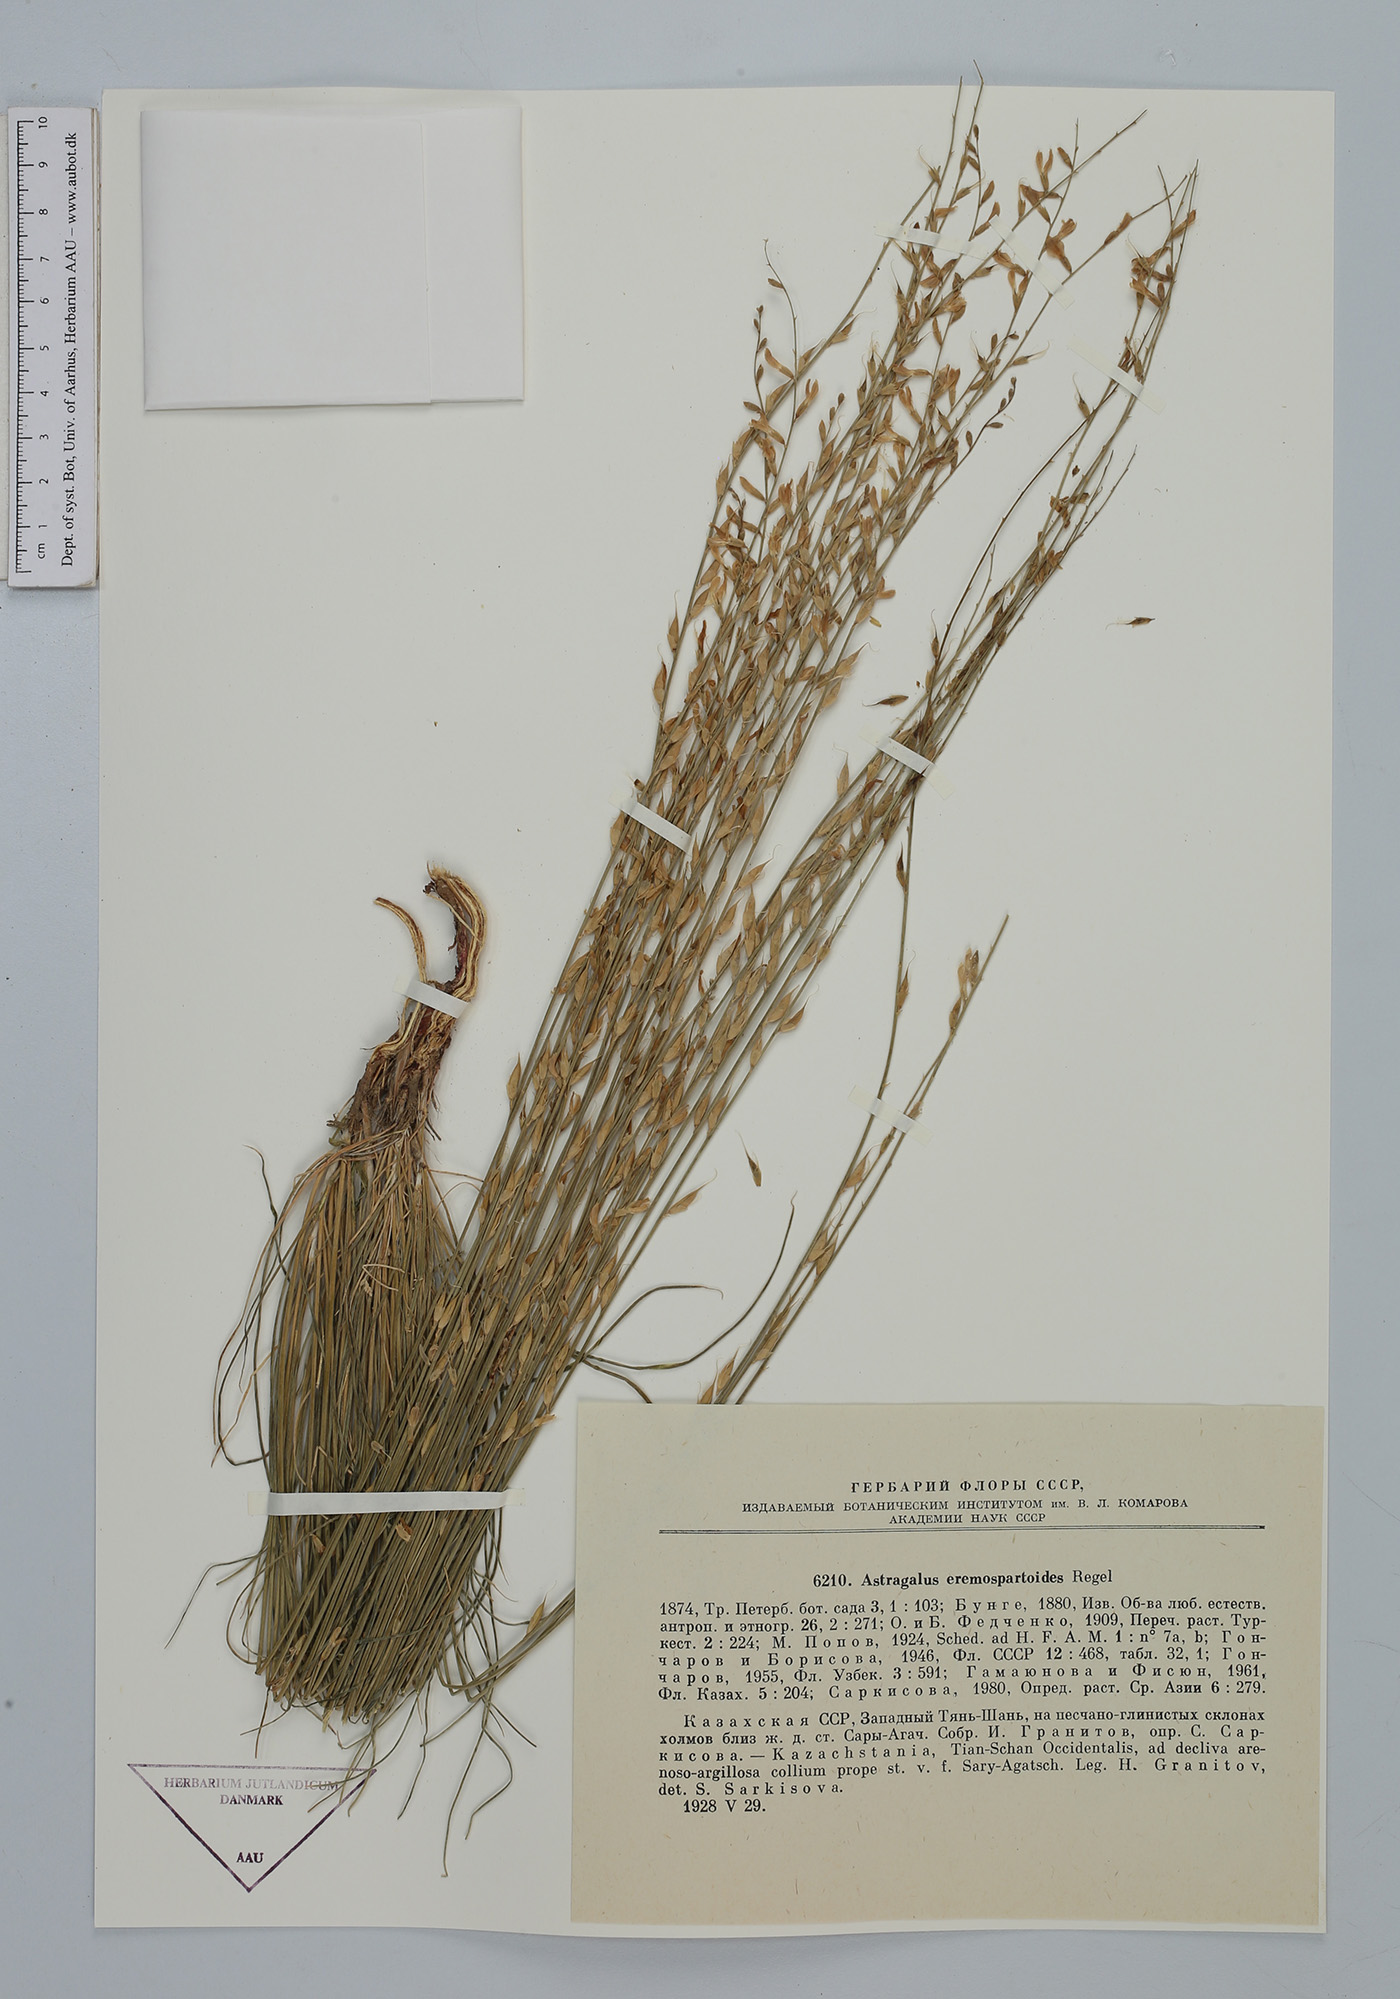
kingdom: Plantae
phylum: Tracheophyta
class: Magnoliopsida
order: Fabales
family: Fabaceae
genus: Astragalus
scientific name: Astragalus eremospartoides
